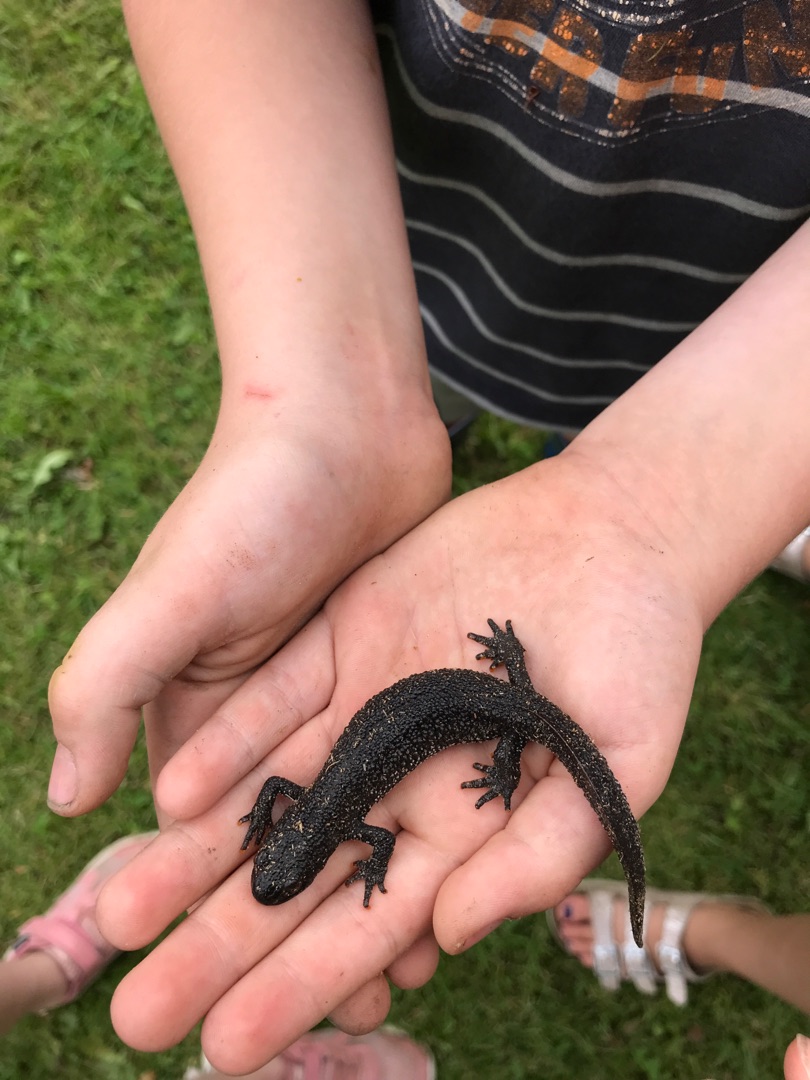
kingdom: Animalia
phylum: Chordata
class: Amphibia
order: Caudata
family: Salamandridae
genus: Triturus
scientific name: Triturus cristatus
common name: Stor vandsalamander
